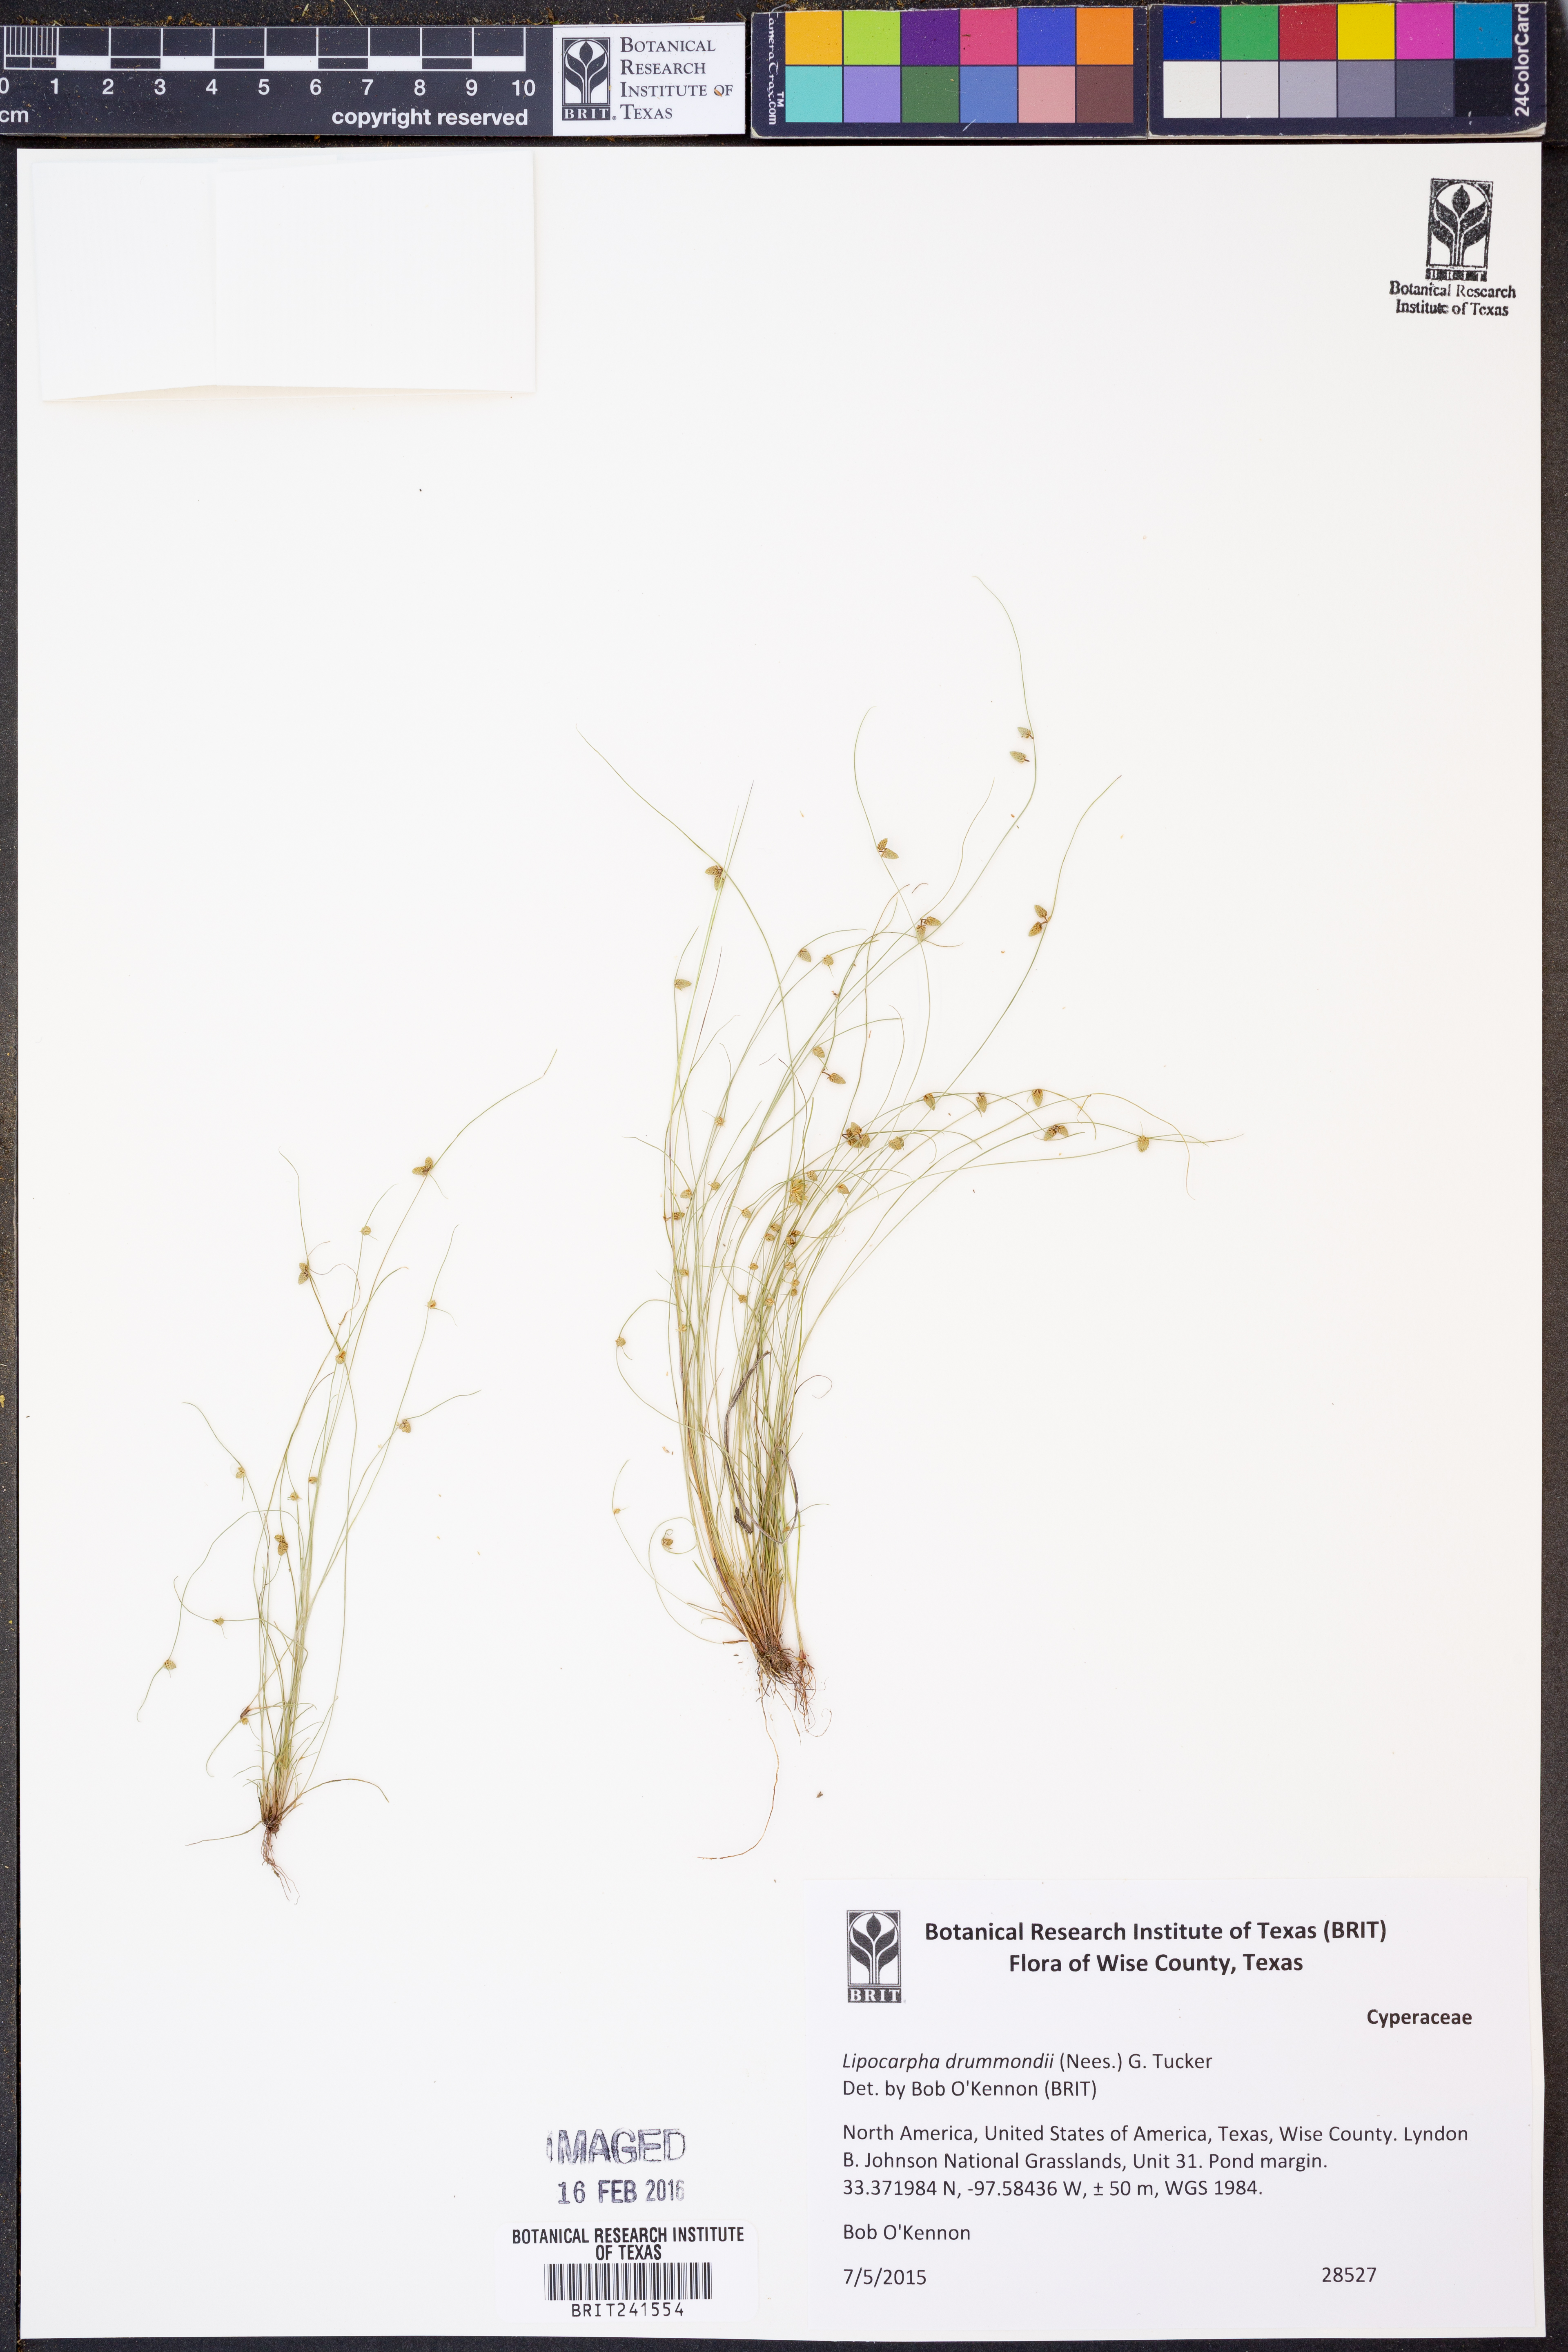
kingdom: Plantae
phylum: Tracheophyta
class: Liliopsida
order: Poales
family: Cyperaceae
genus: Cyperus
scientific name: Cyperus hemidrummondii
